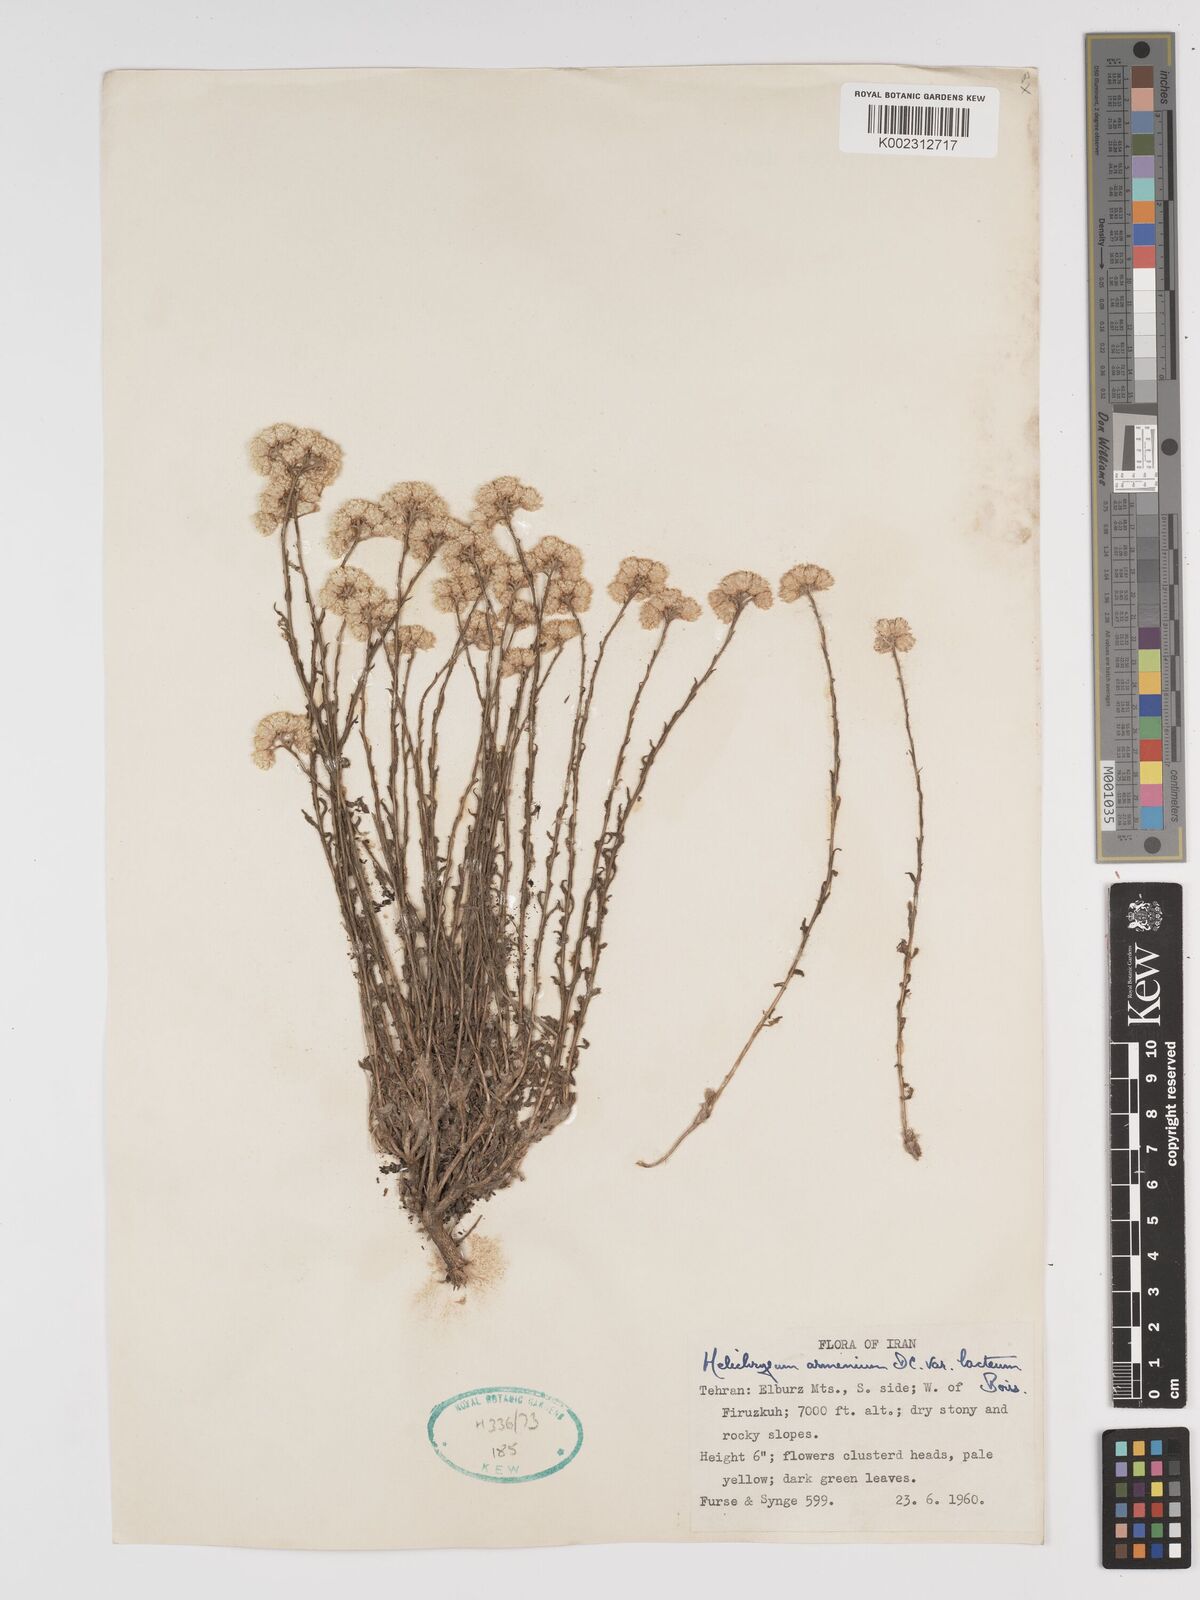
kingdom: Plantae
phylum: Tracheophyta
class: Magnoliopsida
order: Asterales
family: Asteraceae
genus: Helichrysum
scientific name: Helichrysum armenium
